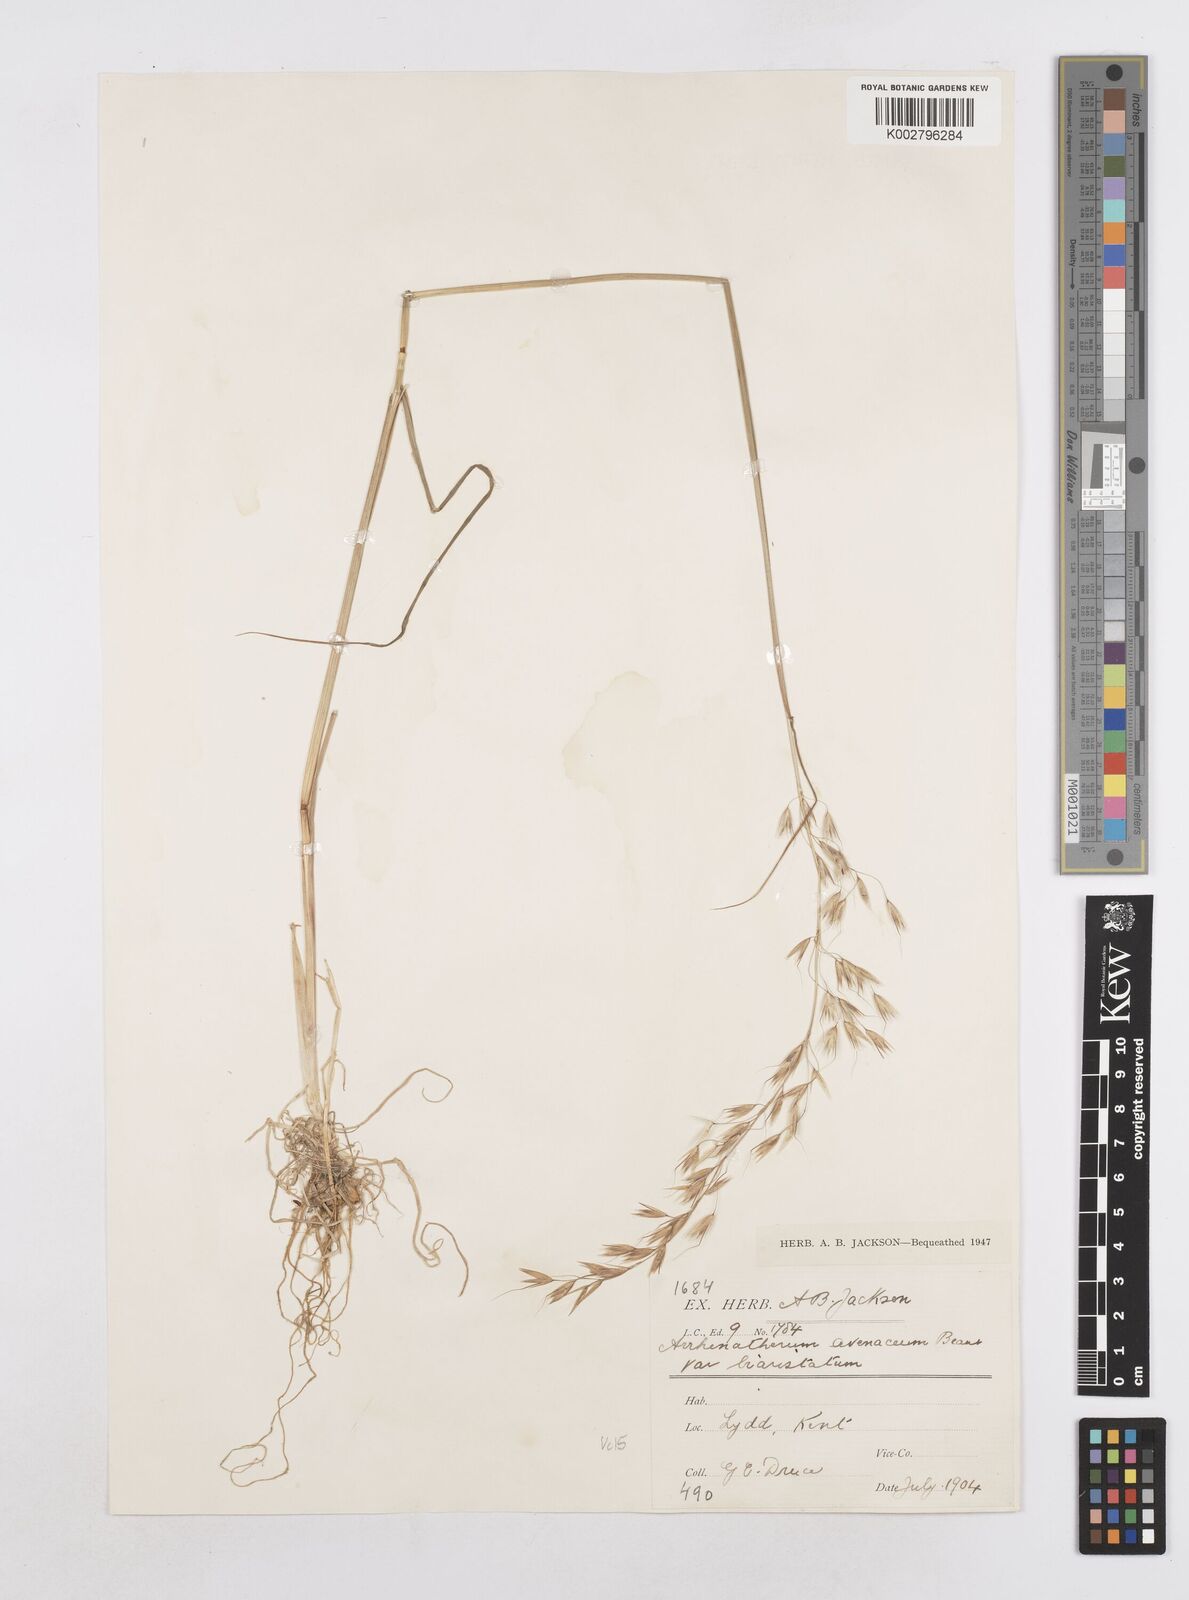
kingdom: Plantae
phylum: Tracheophyta
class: Liliopsida
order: Poales
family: Poaceae
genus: Arrhenatherum
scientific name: Arrhenatherum elatius
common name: Tall oatgrass
